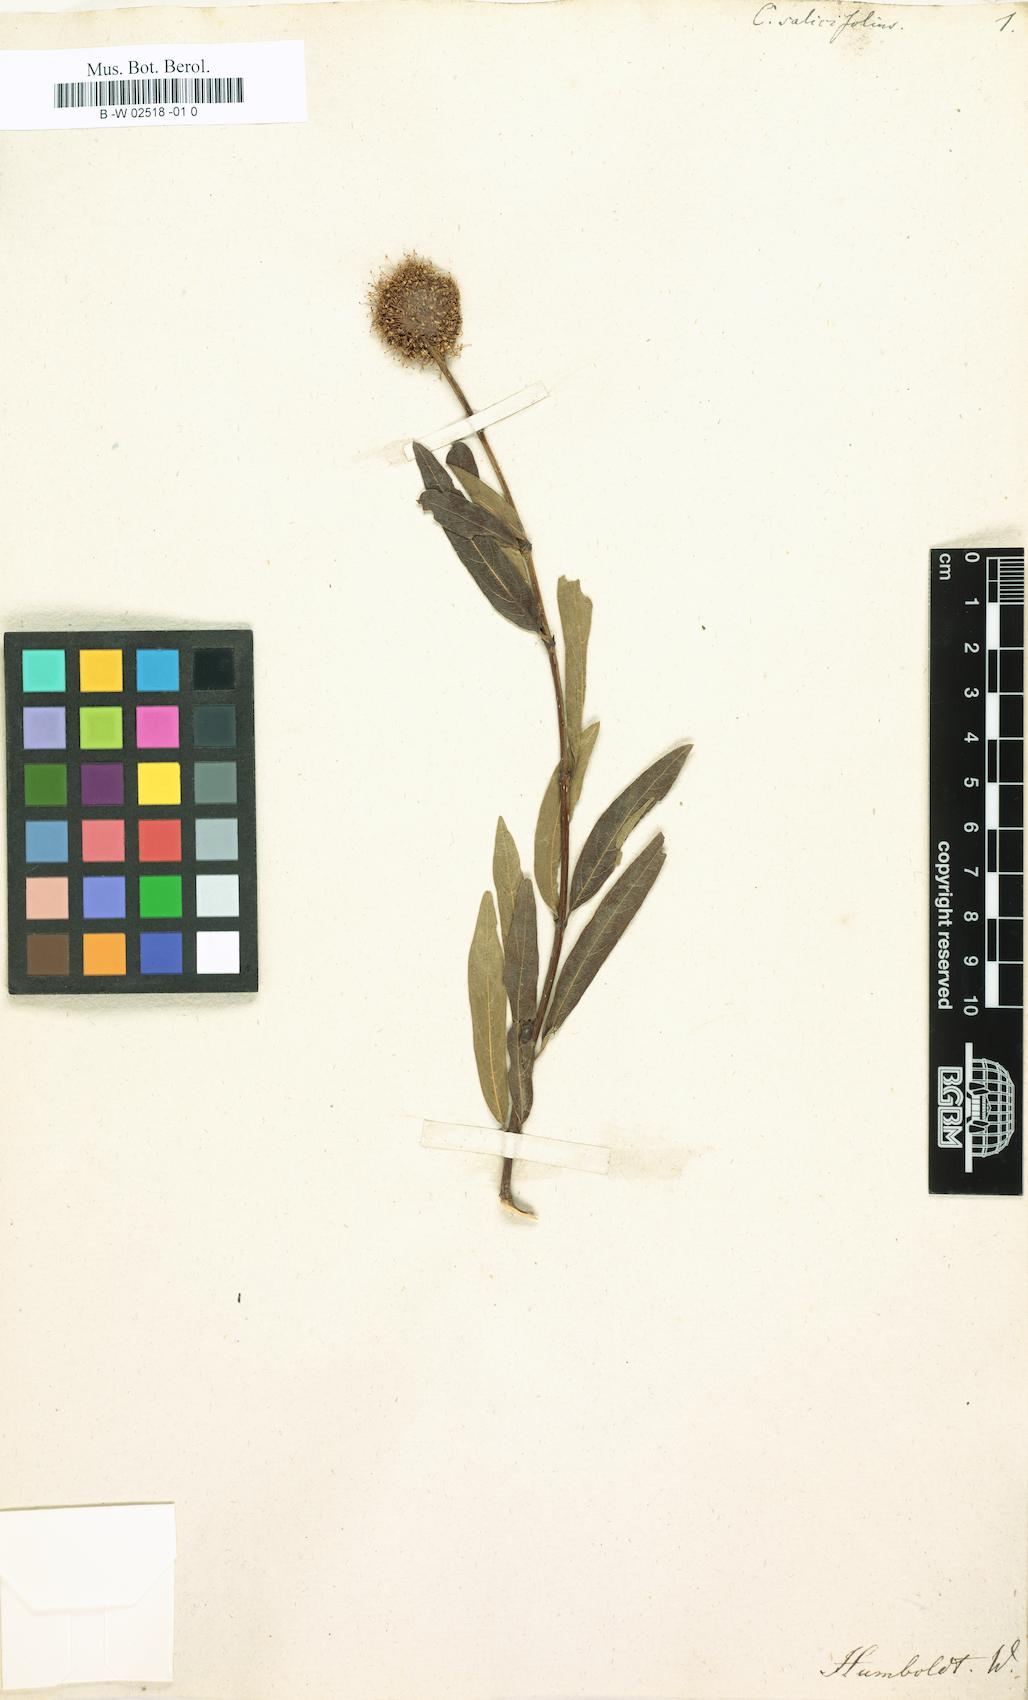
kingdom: Plantae
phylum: Tracheophyta
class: Magnoliopsida
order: Gentianales
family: Rubiaceae
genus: Cephalanthus
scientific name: Cephalanthus salicifolius
